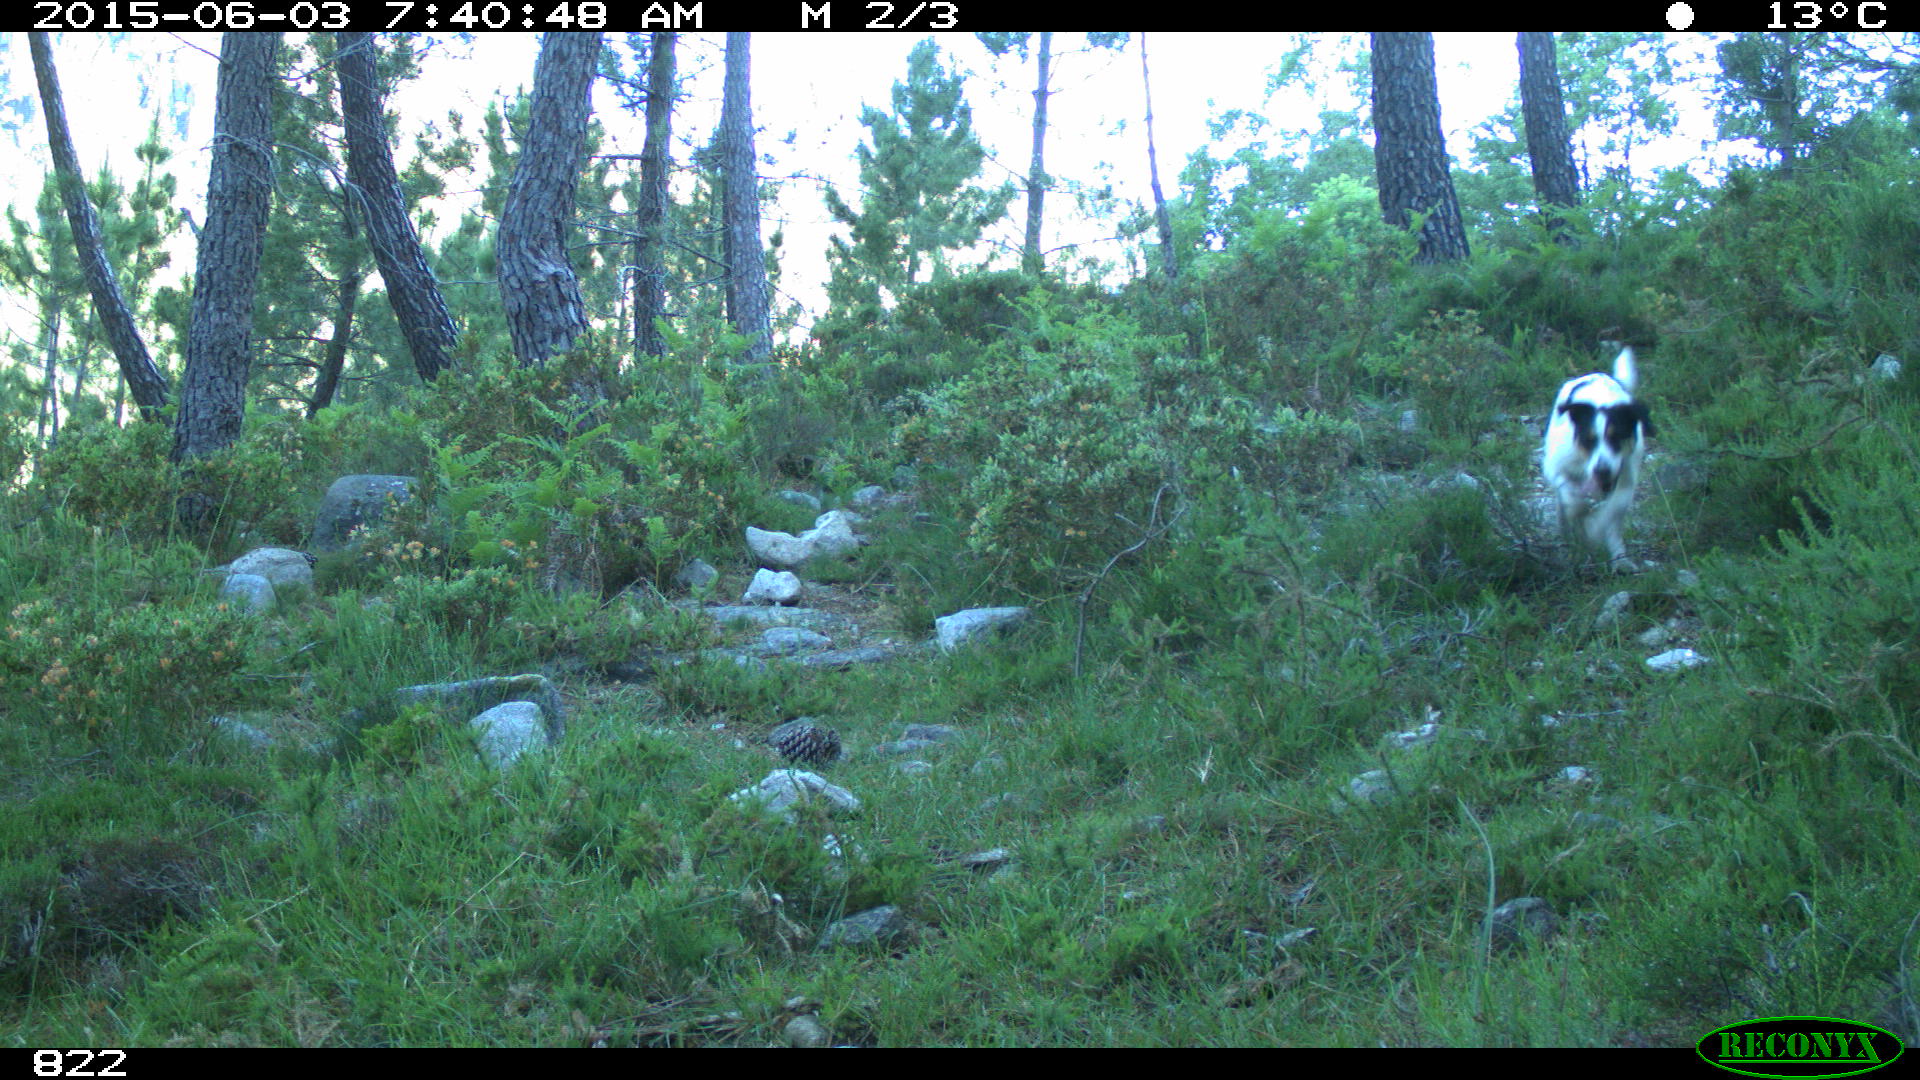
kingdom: Animalia
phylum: Chordata
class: Mammalia
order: Carnivora
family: Canidae
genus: Canis
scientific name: Canis lupus
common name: Gray wolf
